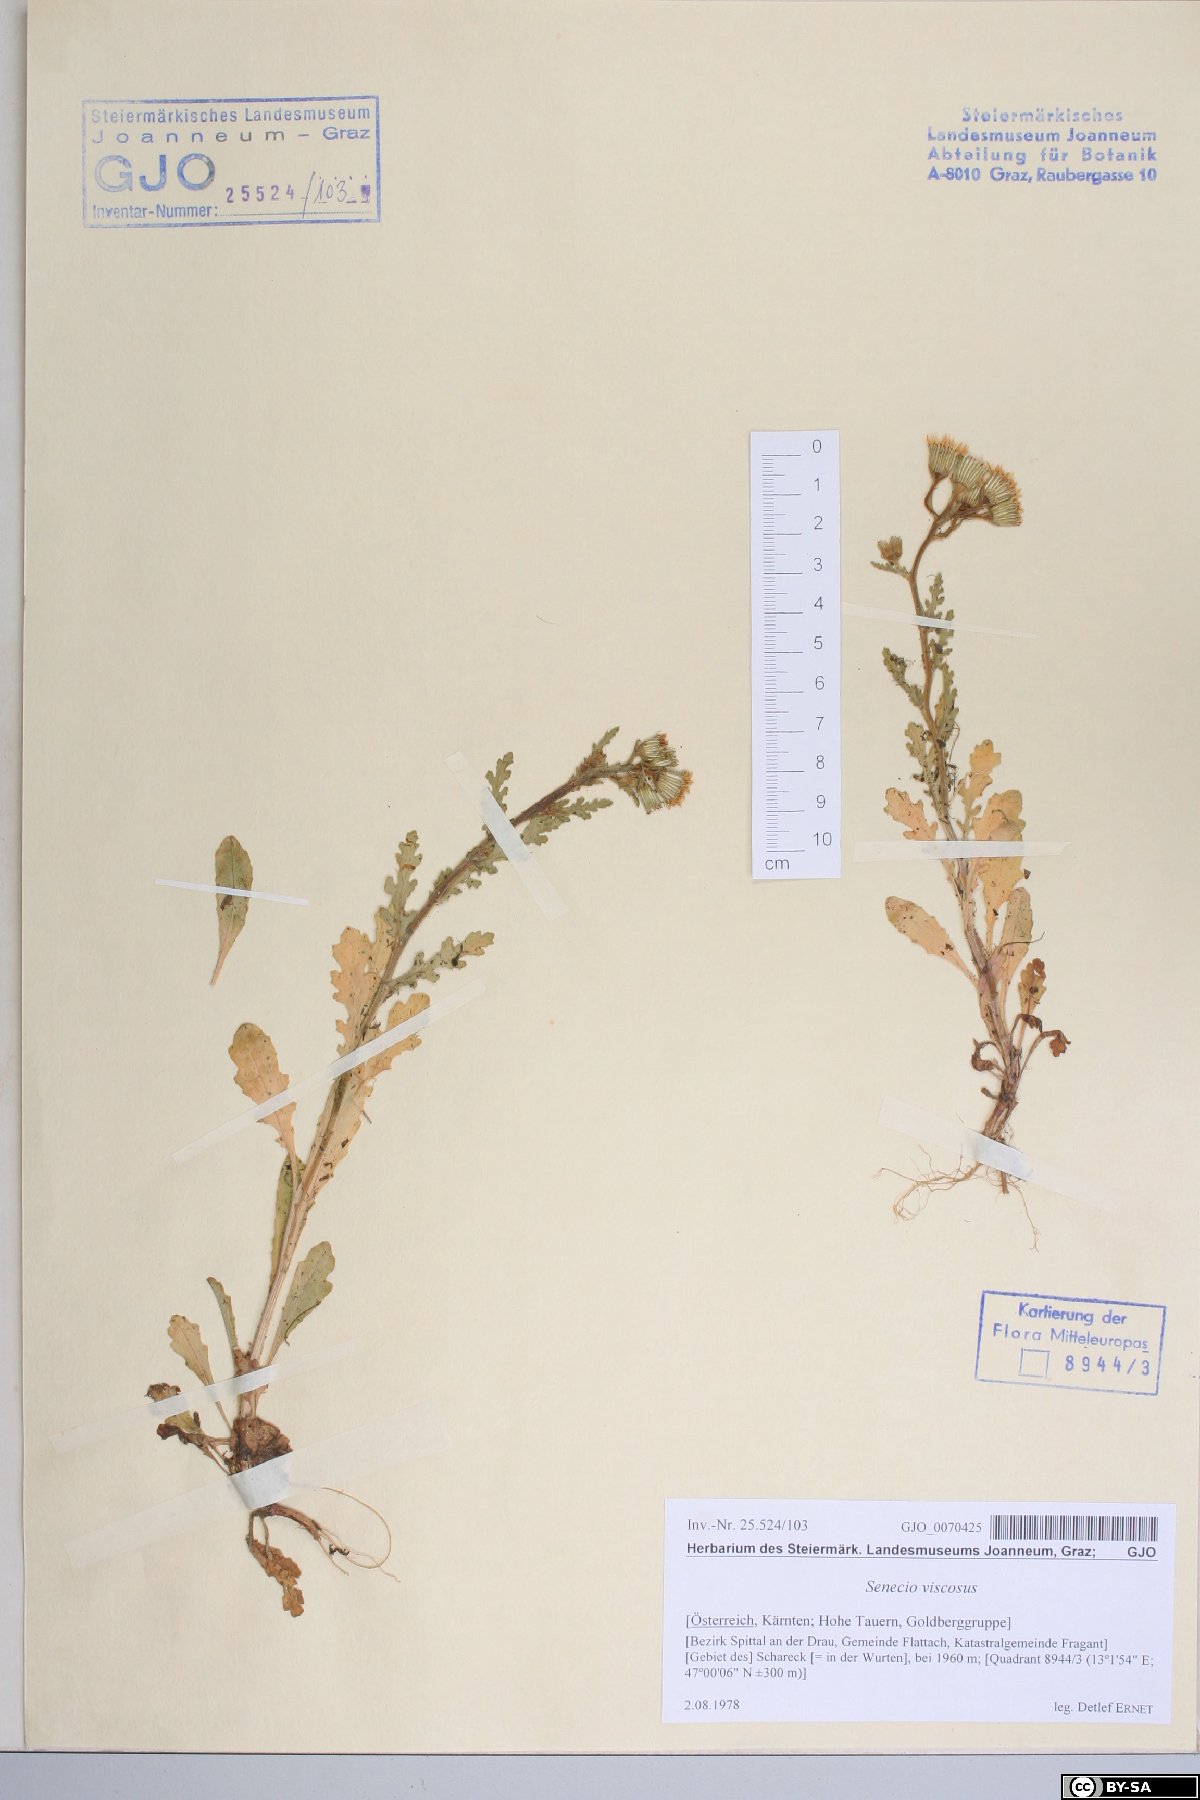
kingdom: Plantae
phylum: Tracheophyta
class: Magnoliopsida
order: Asterales
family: Asteraceae
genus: Senecio
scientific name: Senecio viscosus
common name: Sticky groundsel
